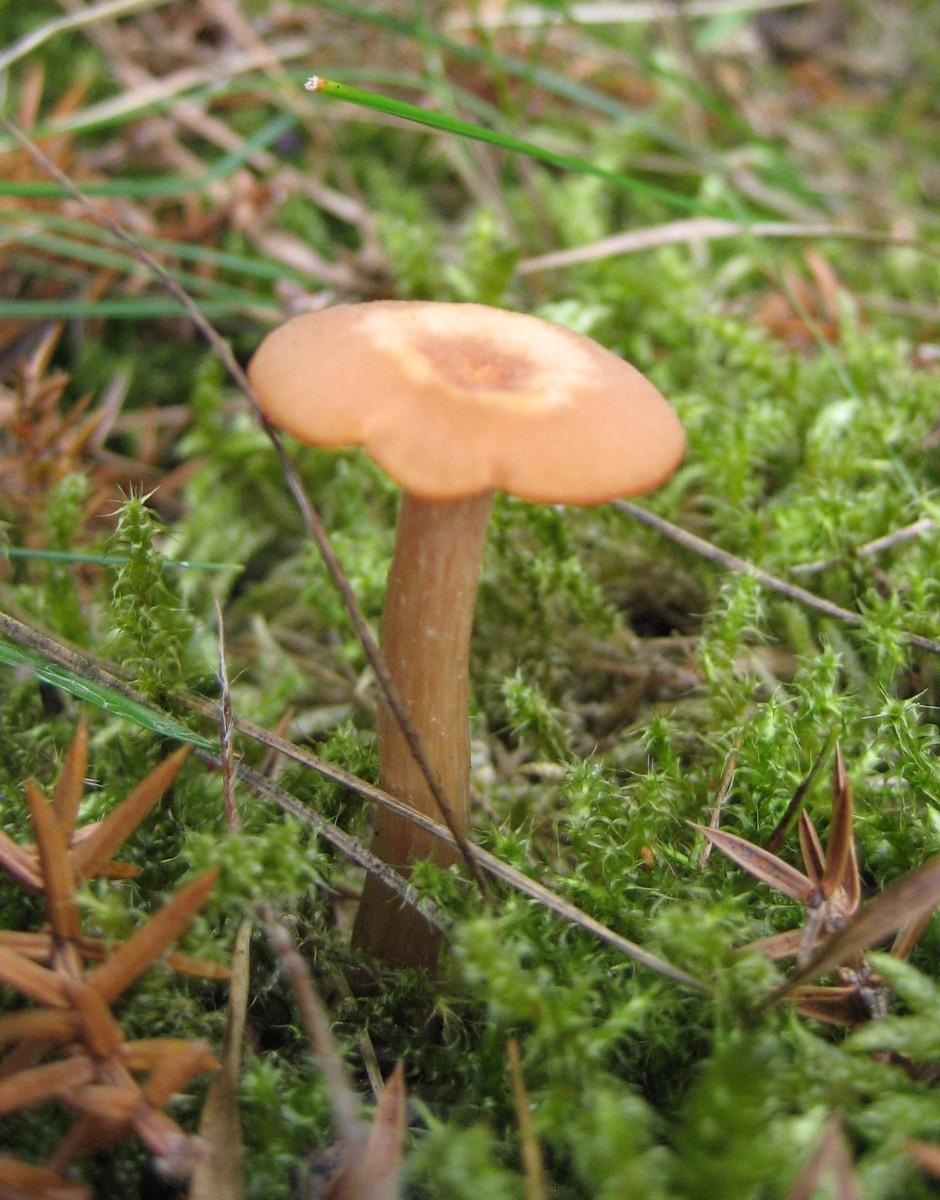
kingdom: Fungi
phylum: Basidiomycota
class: Agaricomycetes
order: Agaricales
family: Hydnangiaceae
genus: Laccaria
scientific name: Laccaria laccata
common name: rød ametysthat
